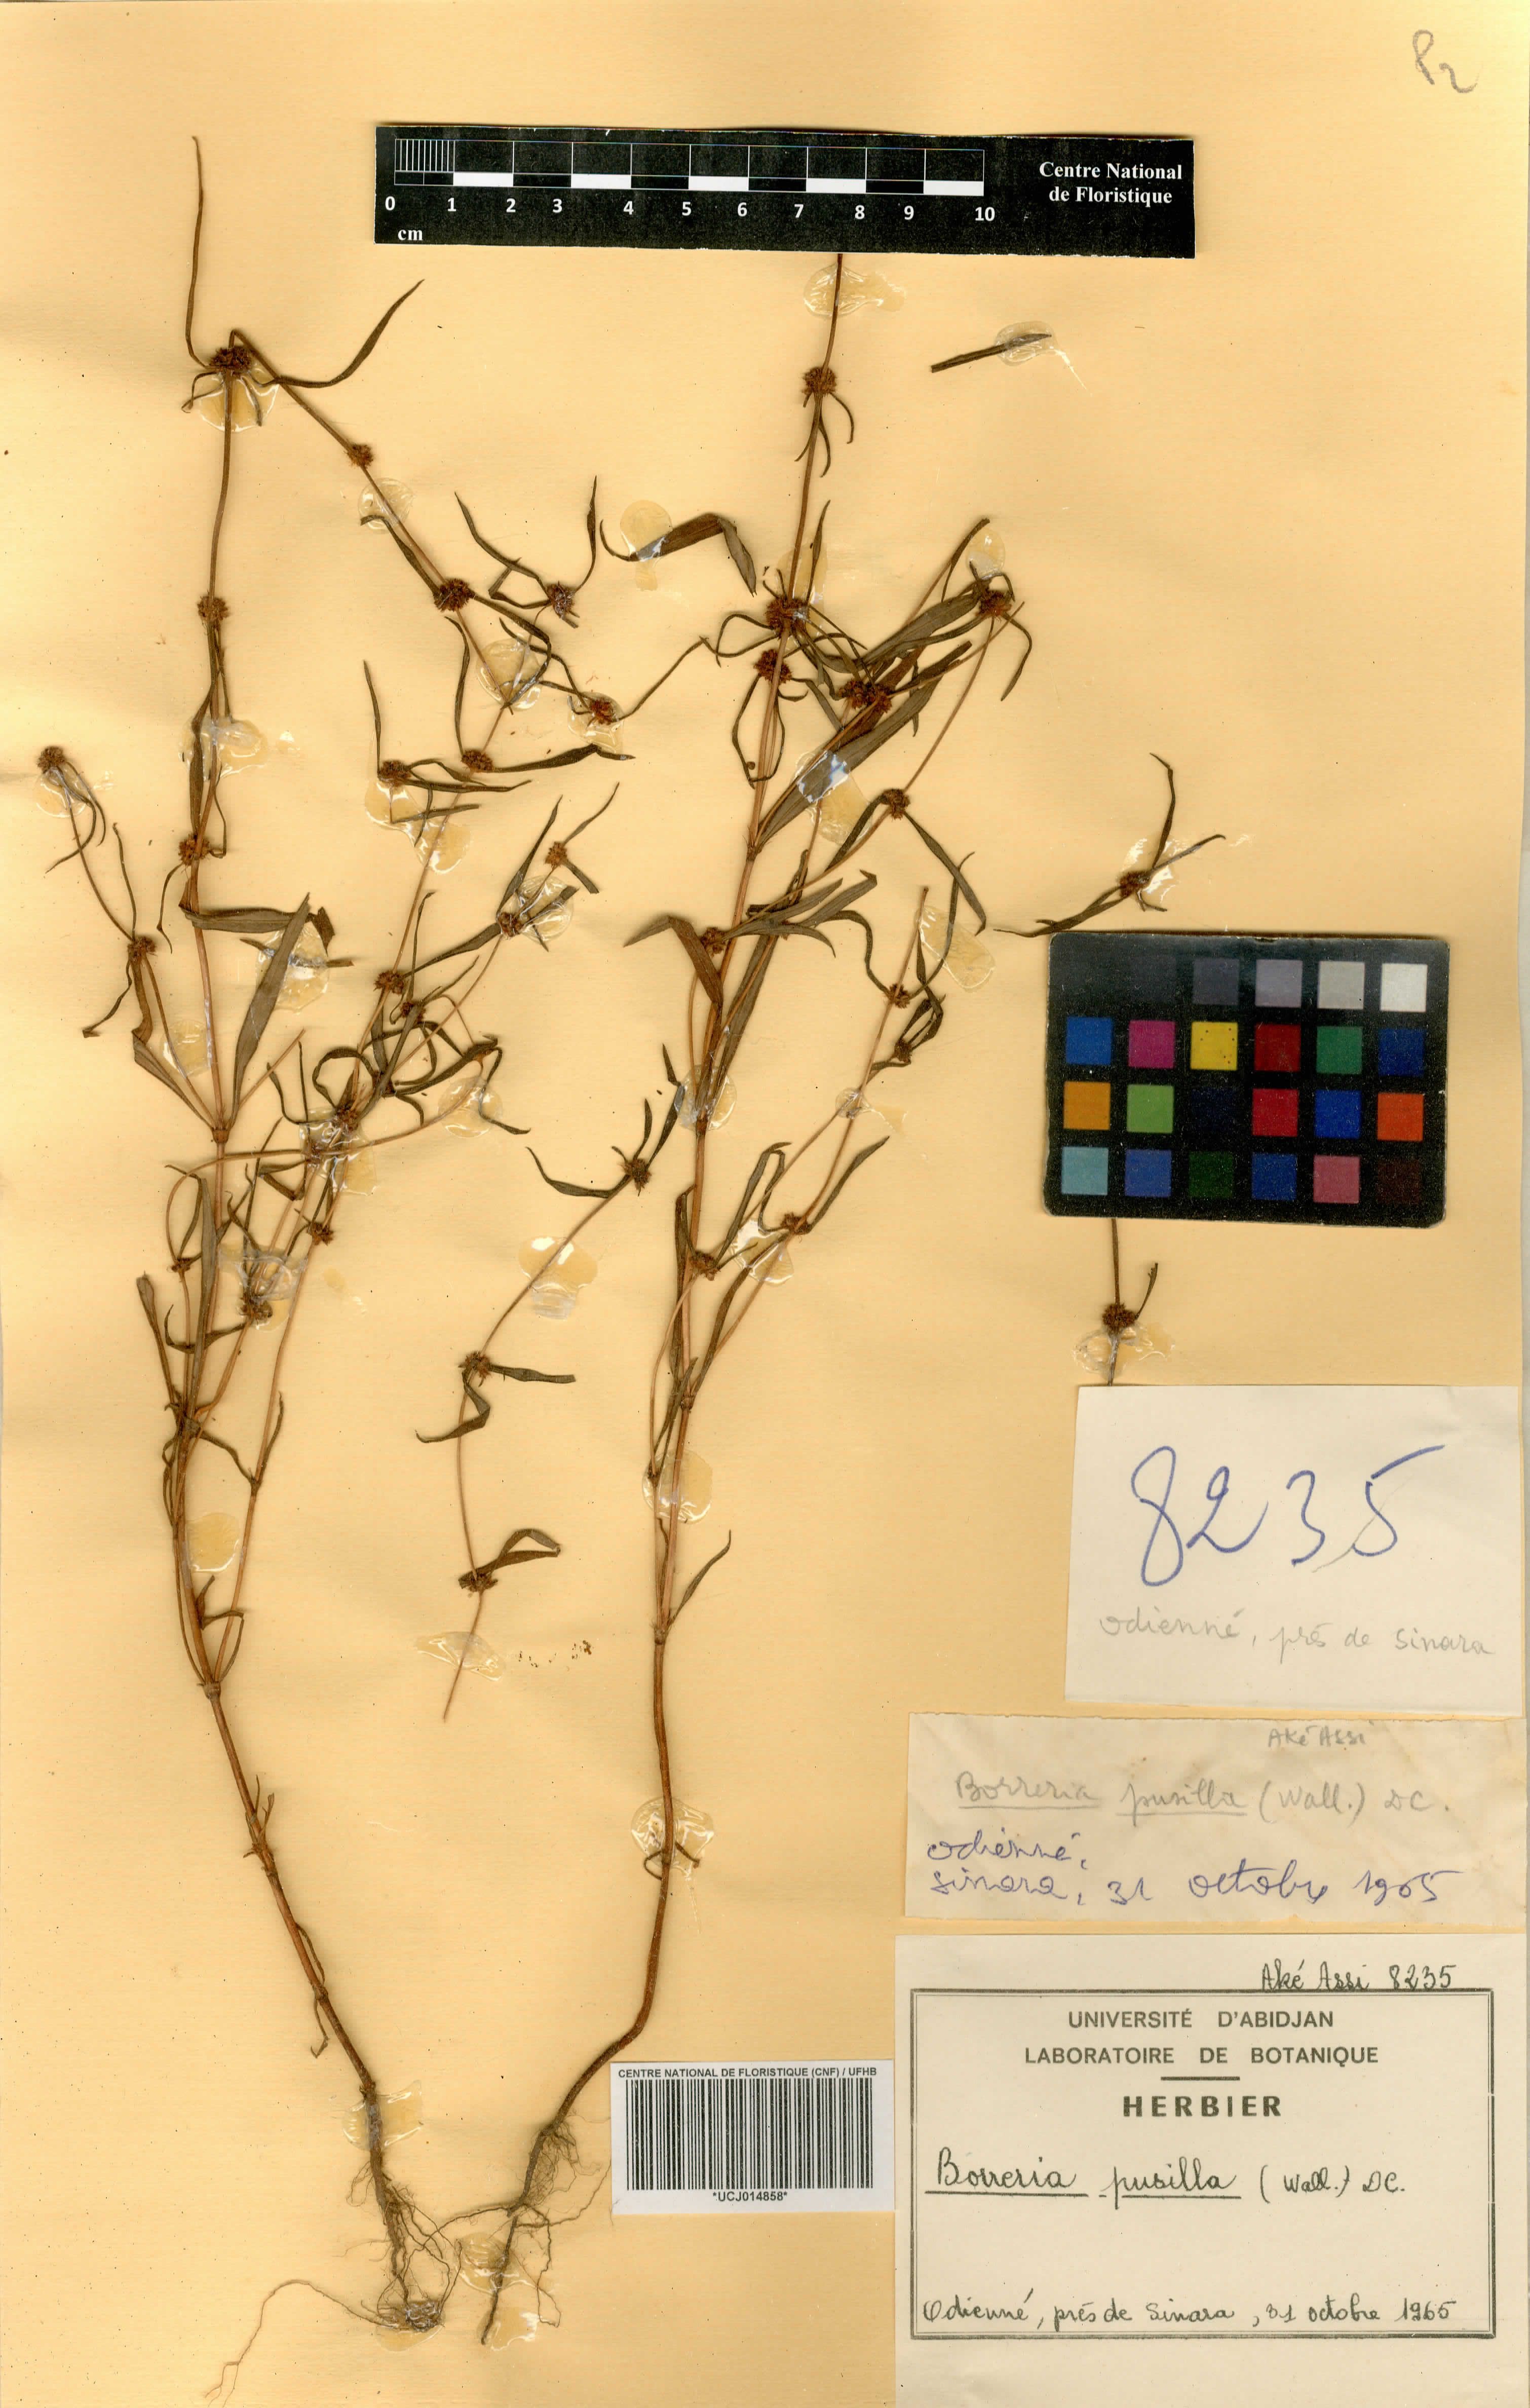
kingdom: Plantae
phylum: Tracheophyta
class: Magnoliopsida
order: Gentianales
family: Rubiaceae
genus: Spermacoce
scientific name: Spermacoce pusilla
